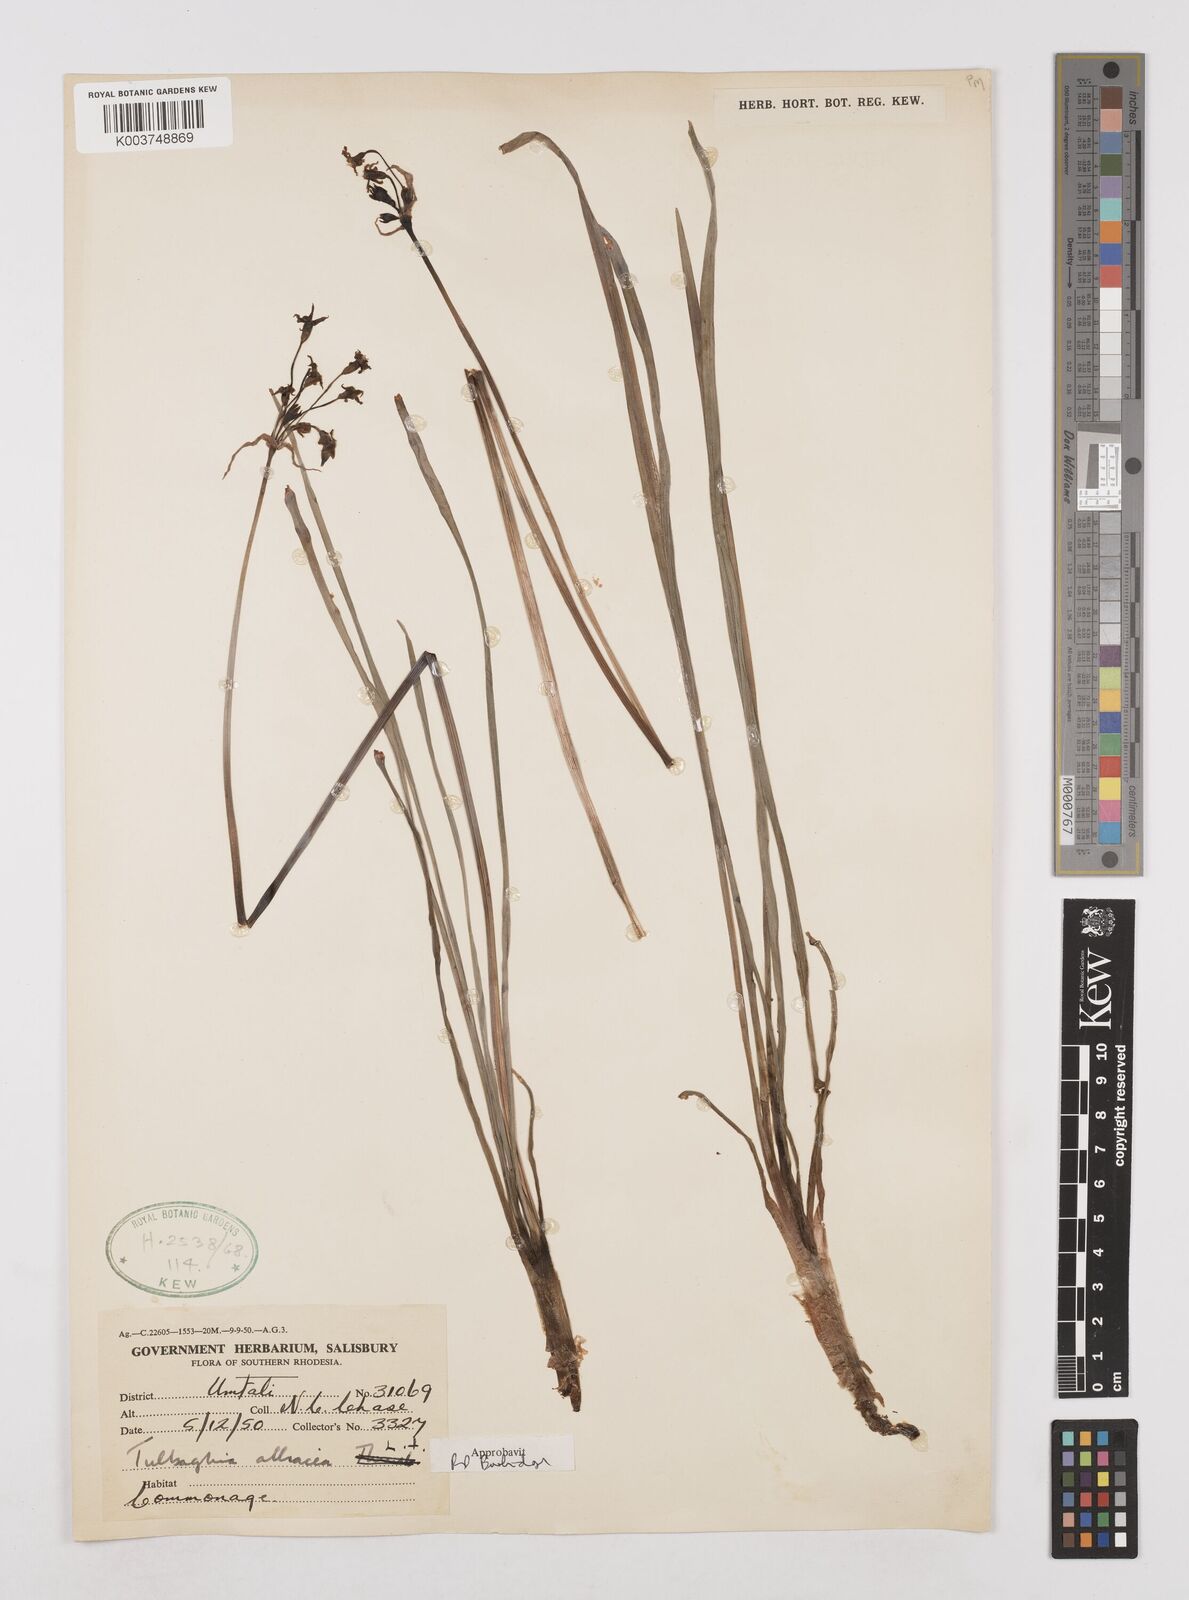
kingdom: Plantae
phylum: Tracheophyta
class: Liliopsida
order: Asparagales
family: Amaryllidaceae
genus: Tulbaghia
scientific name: Tulbaghia alliacea
